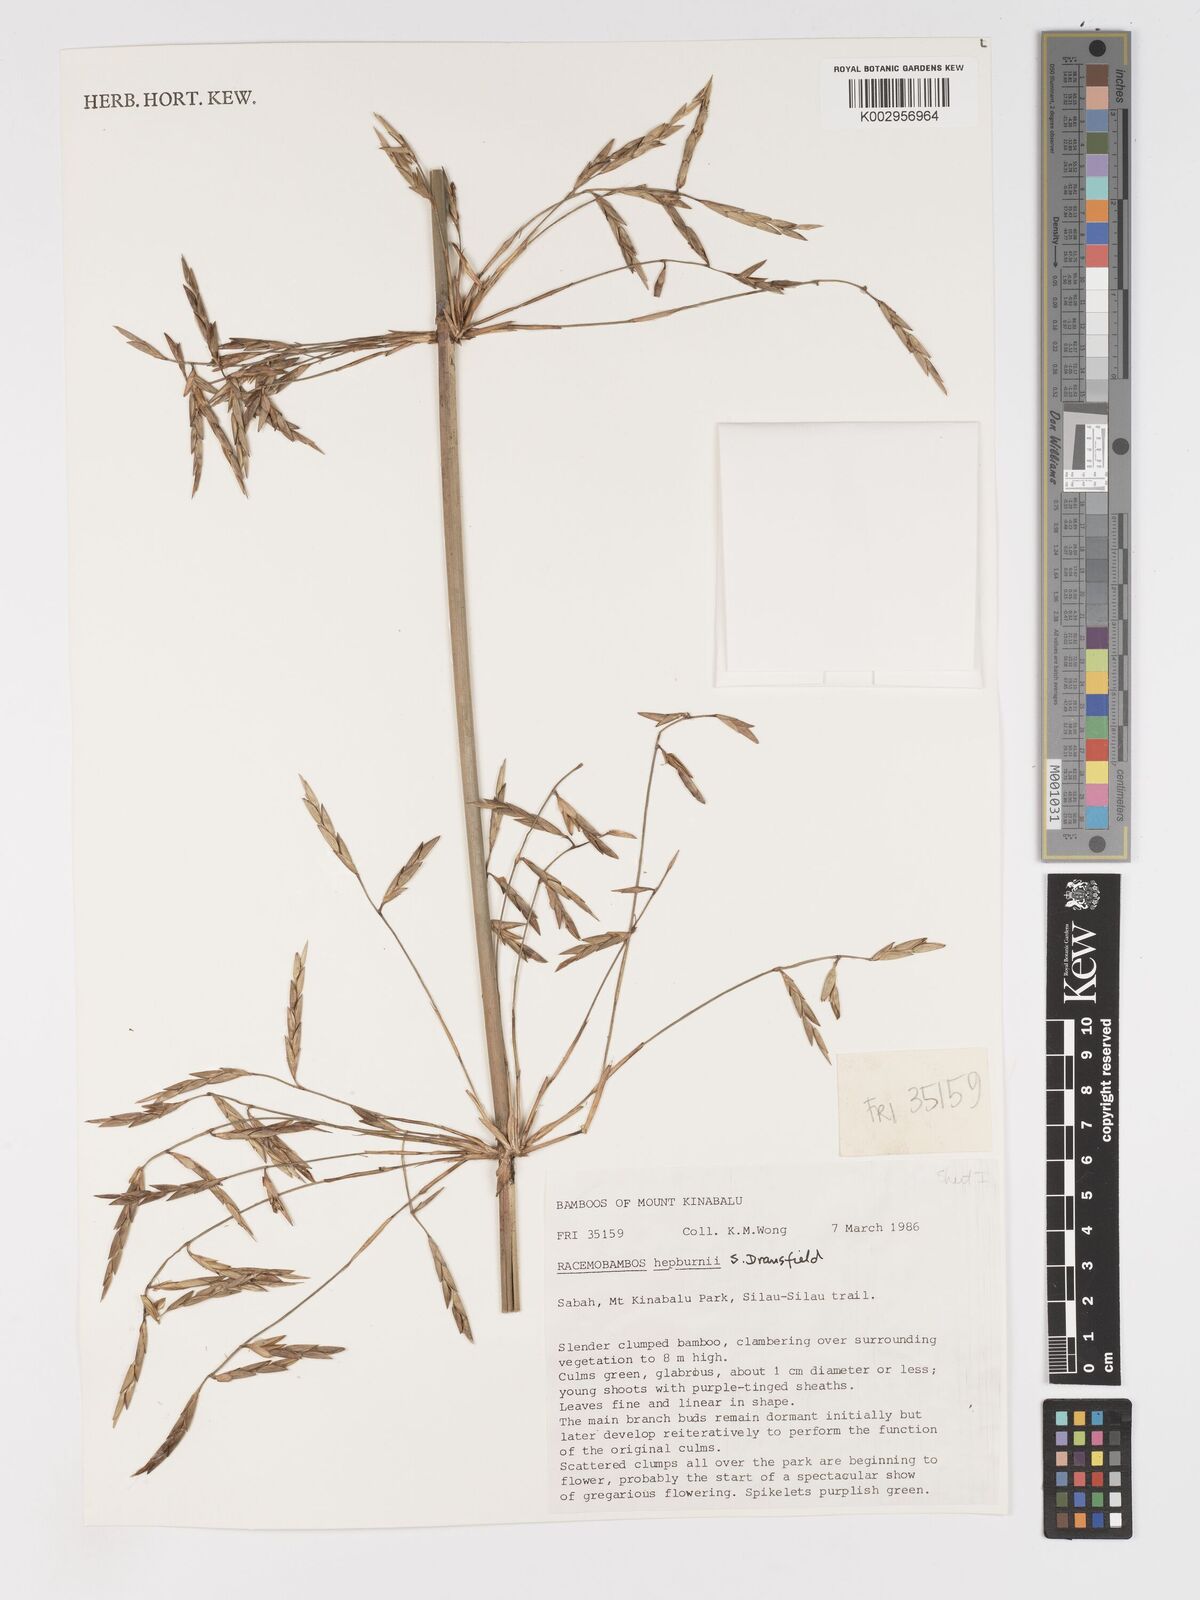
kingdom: Plantae
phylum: Tracheophyta
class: Liliopsida
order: Poales
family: Poaceae
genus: Racemobambos
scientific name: Racemobambos hepburnii
